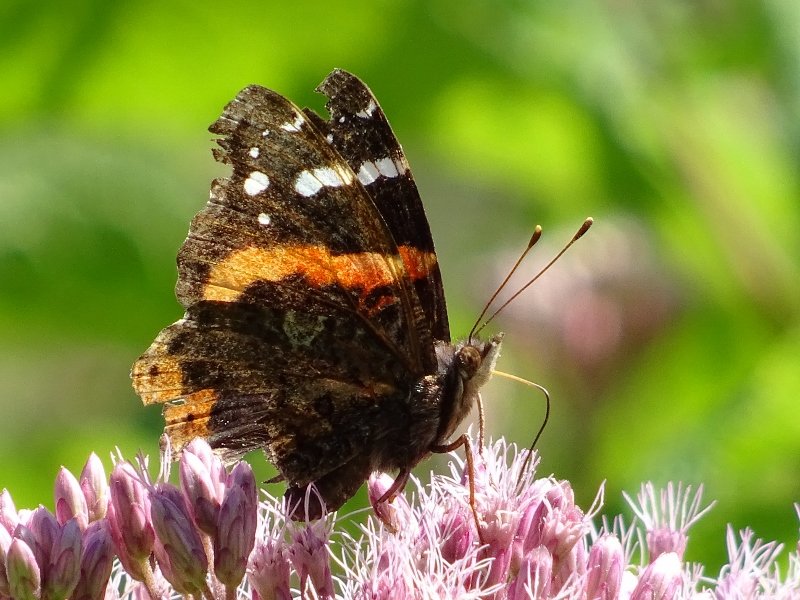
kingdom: Animalia
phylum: Arthropoda
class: Insecta
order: Lepidoptera
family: Nymphalidae
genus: Vanessa
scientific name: Vanessa atalanta
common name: Red Admiral
